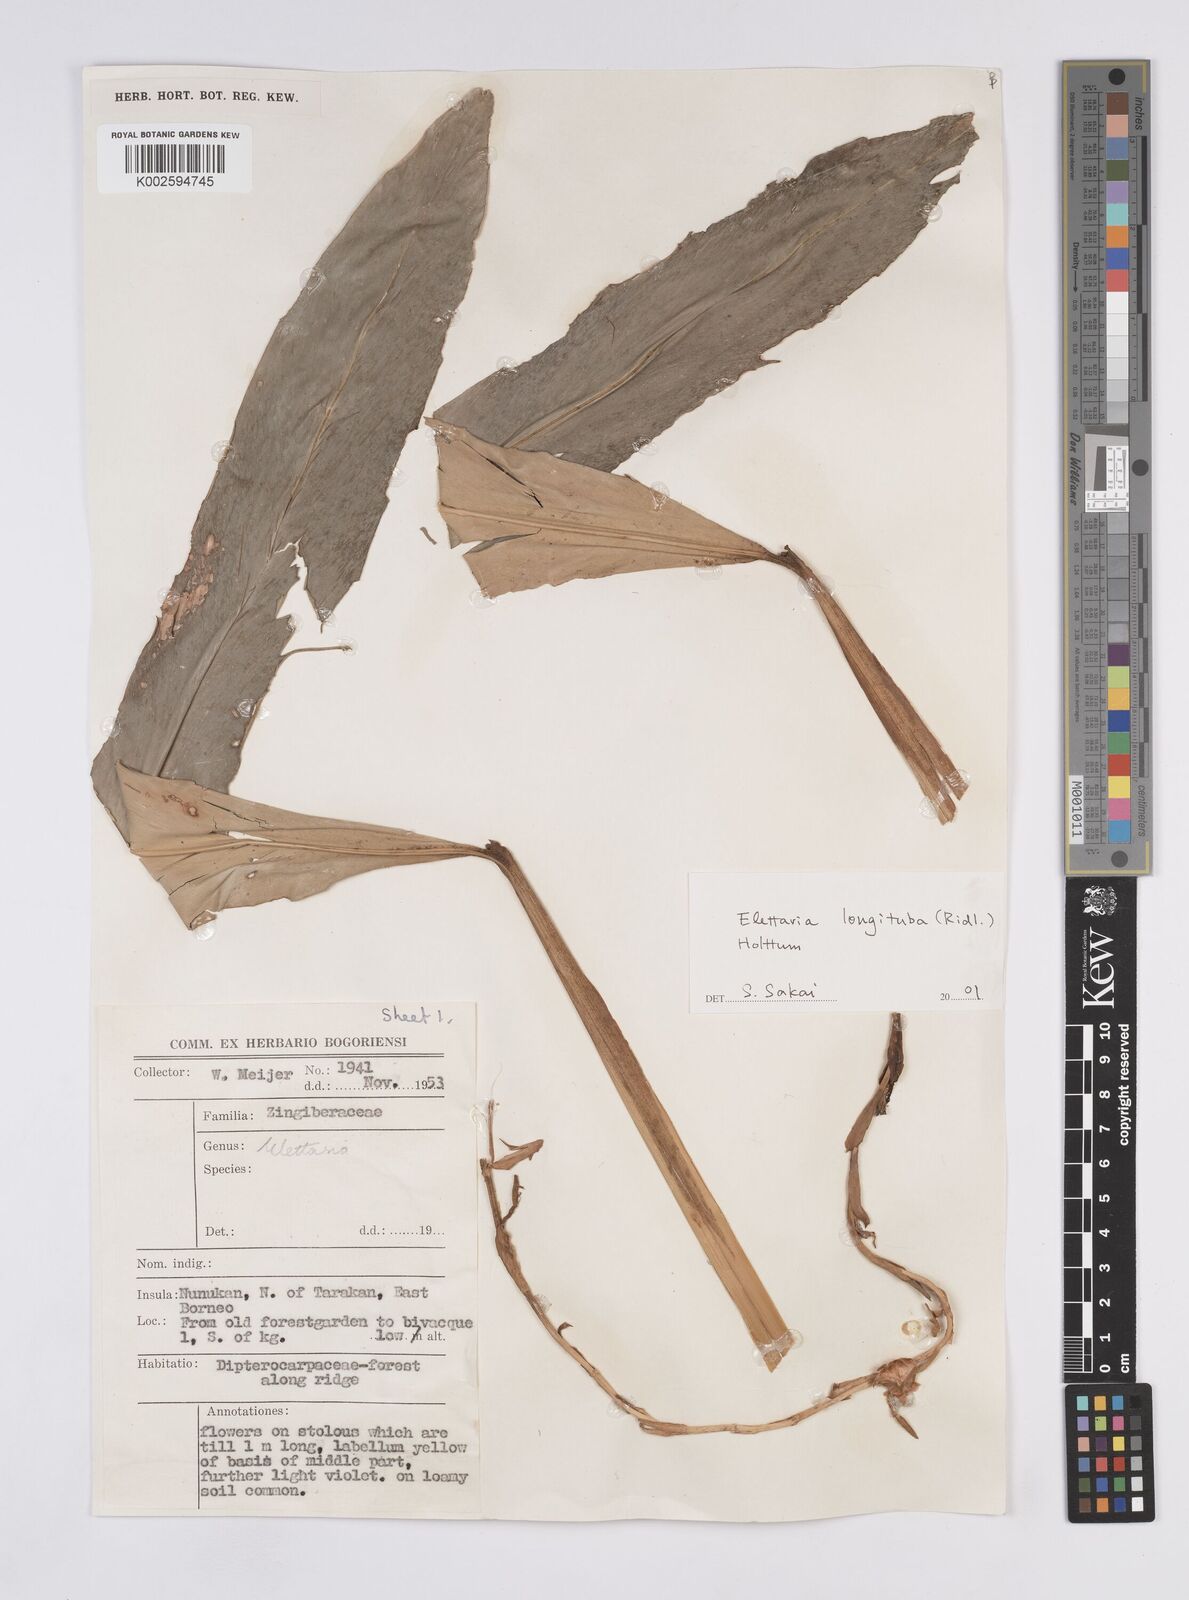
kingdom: Plantae
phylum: Tracheophyta
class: Liliopsida
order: Zingiberales
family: Zingiberaceae
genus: Sulettaria
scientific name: Sulettaria longituba
